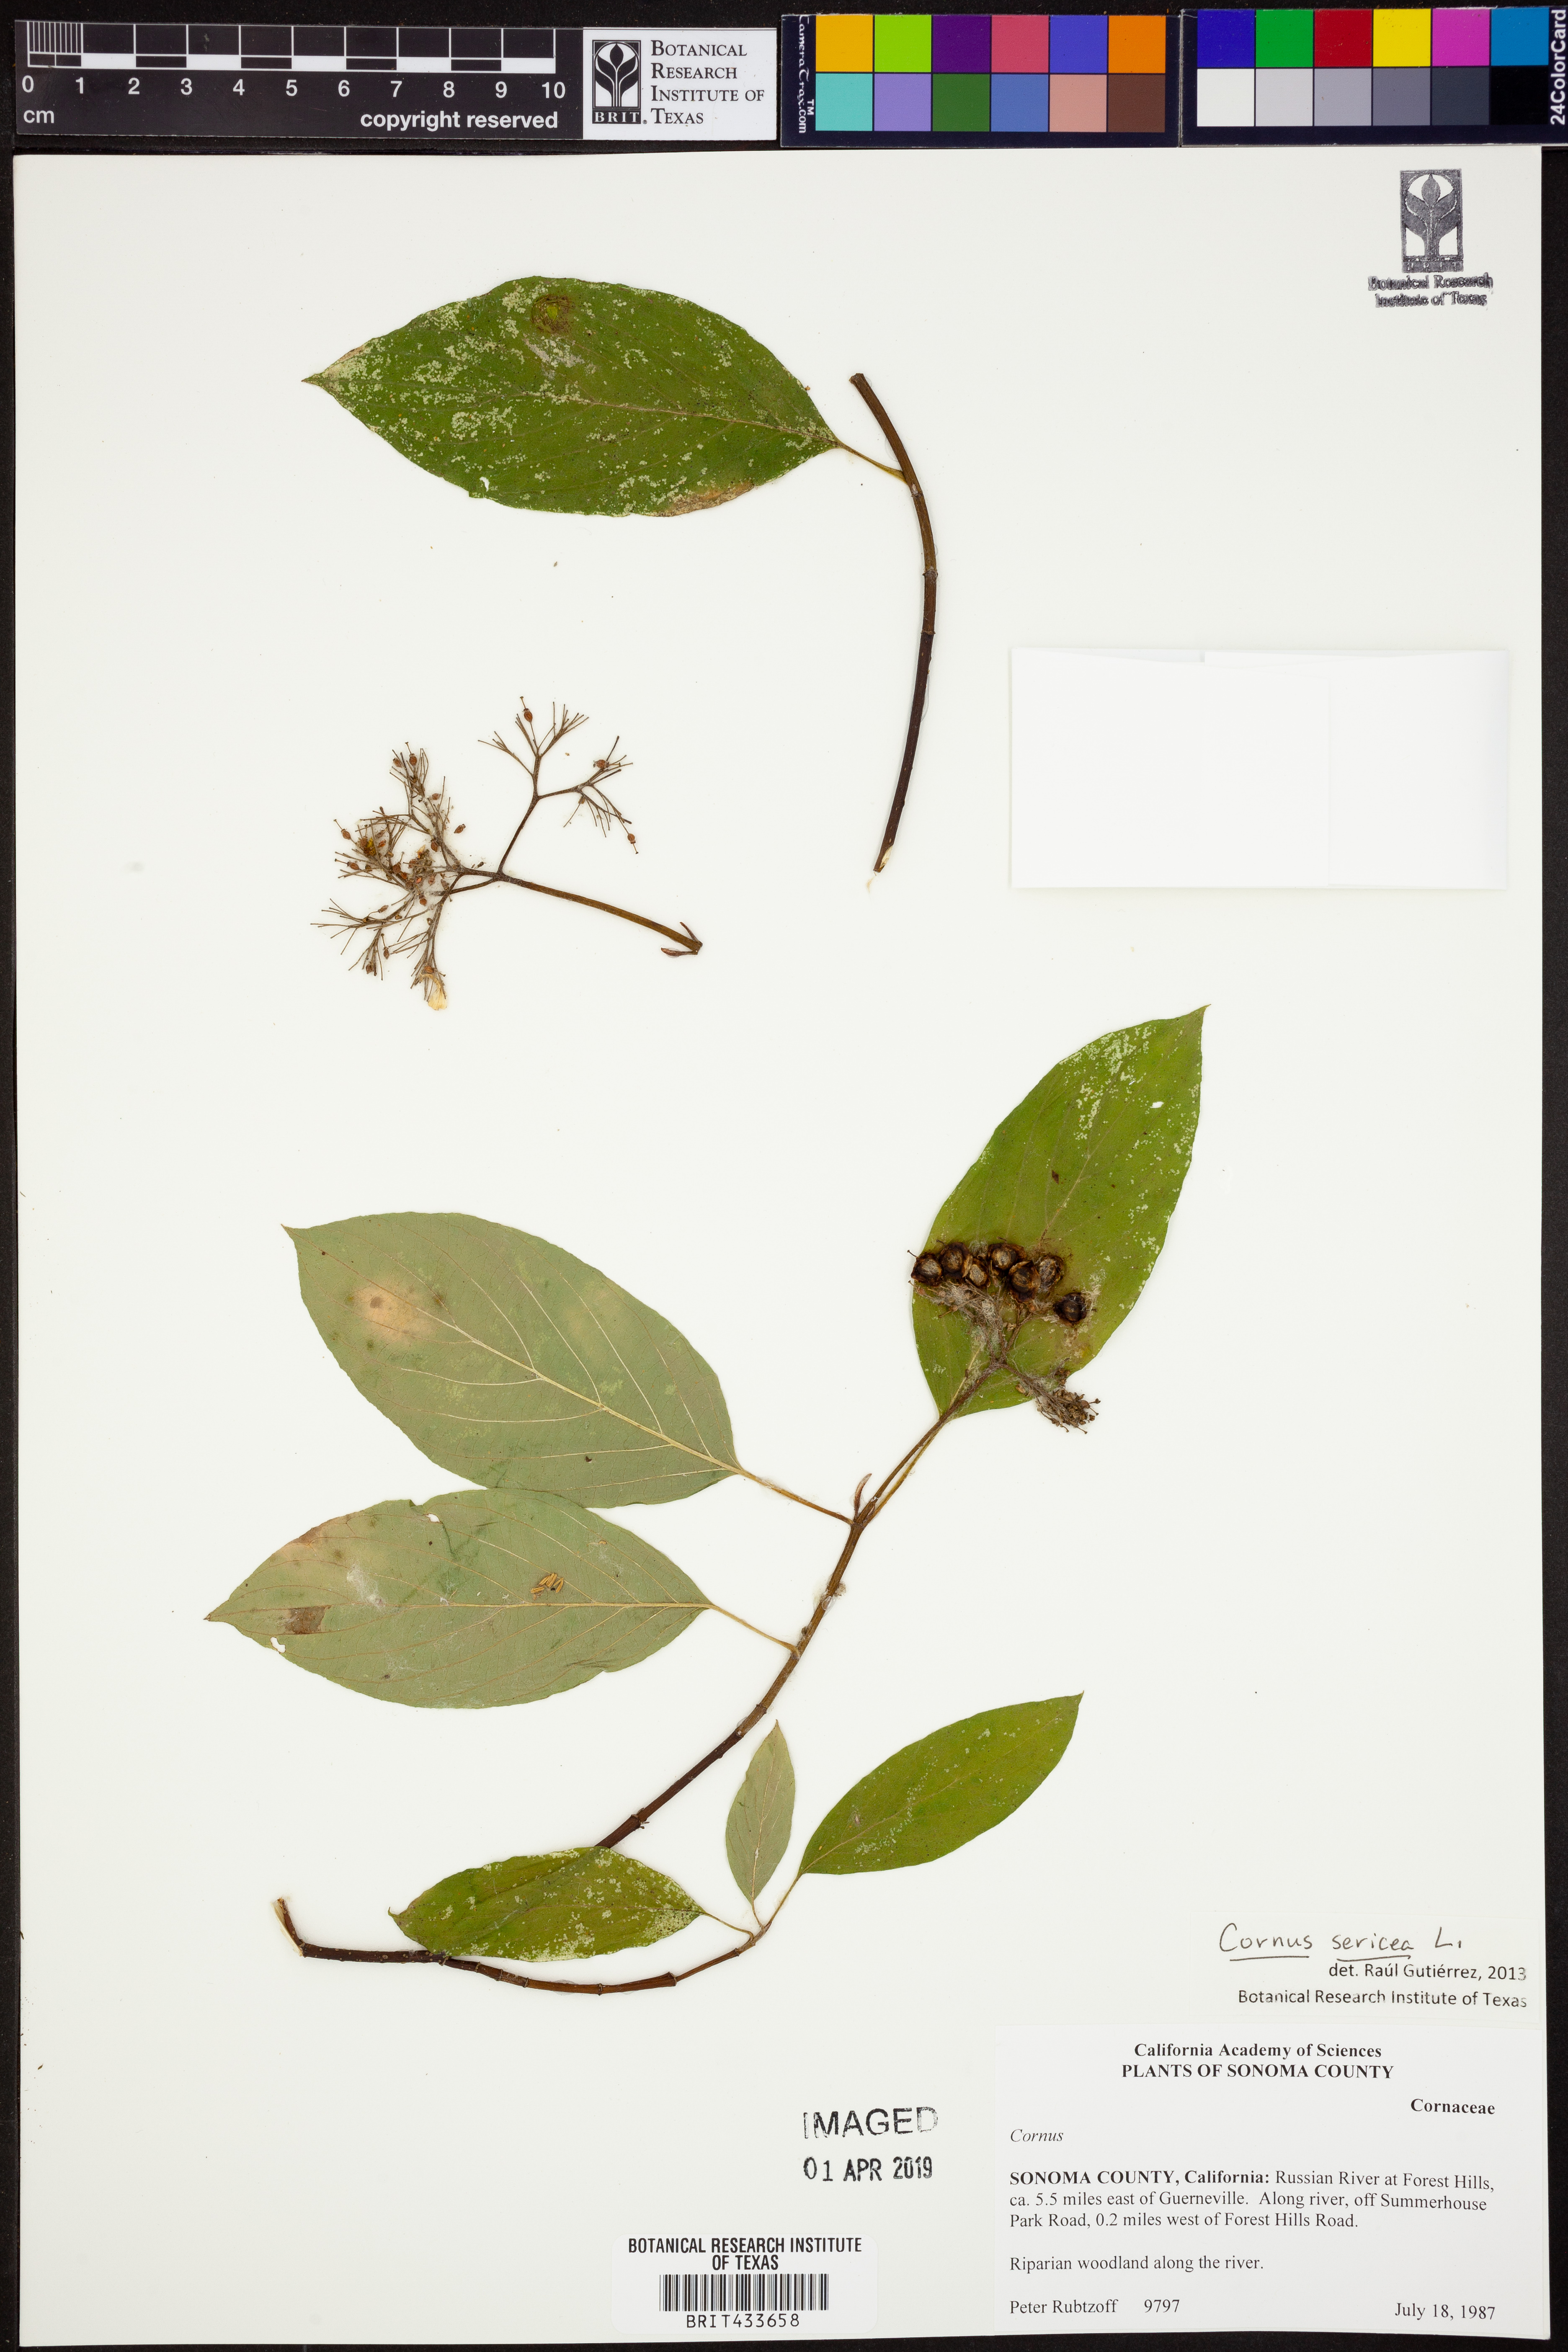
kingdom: Plantae
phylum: Tracheophyta
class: Magnoliopsida
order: Cornales
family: Cornaceae
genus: Cornus
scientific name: Cornus sericea
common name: Red-osier dogwood
